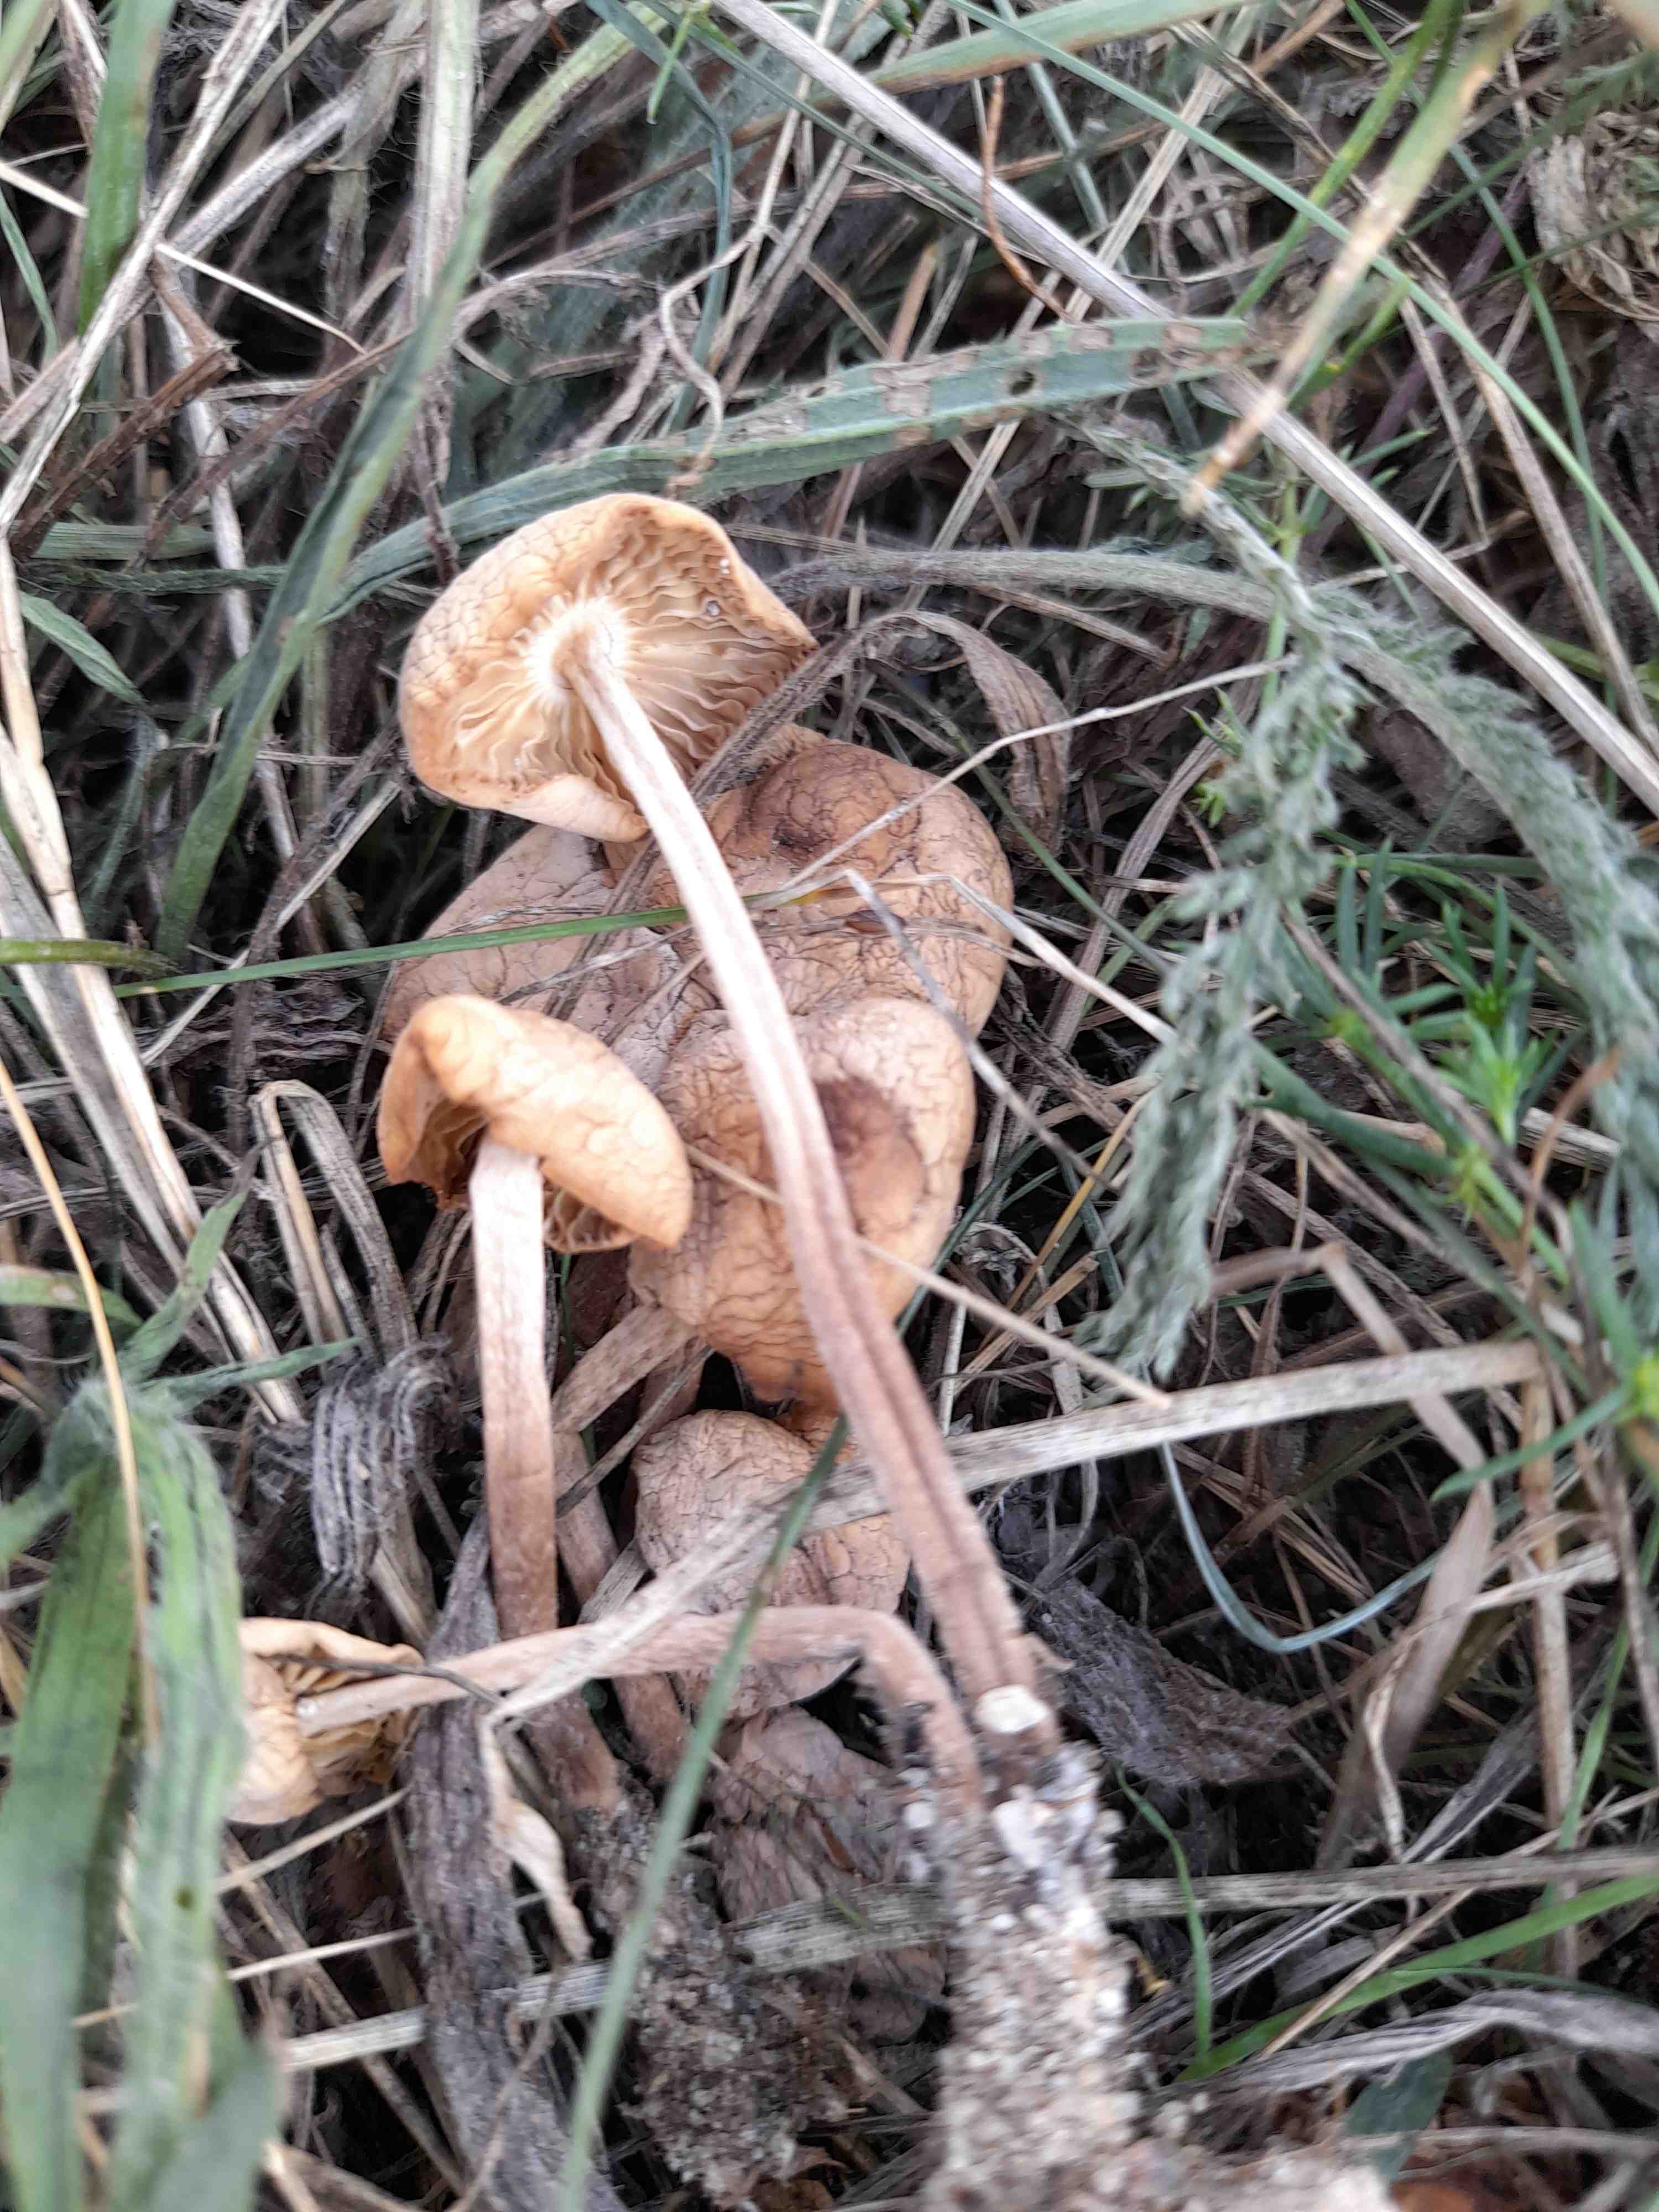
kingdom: Fungi
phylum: Basidiomycota
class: Agaricomycetes
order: Agaricales
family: Marasmiaceae
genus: Marasmius
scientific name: Marasmius oreades
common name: elledans-bruskhat
